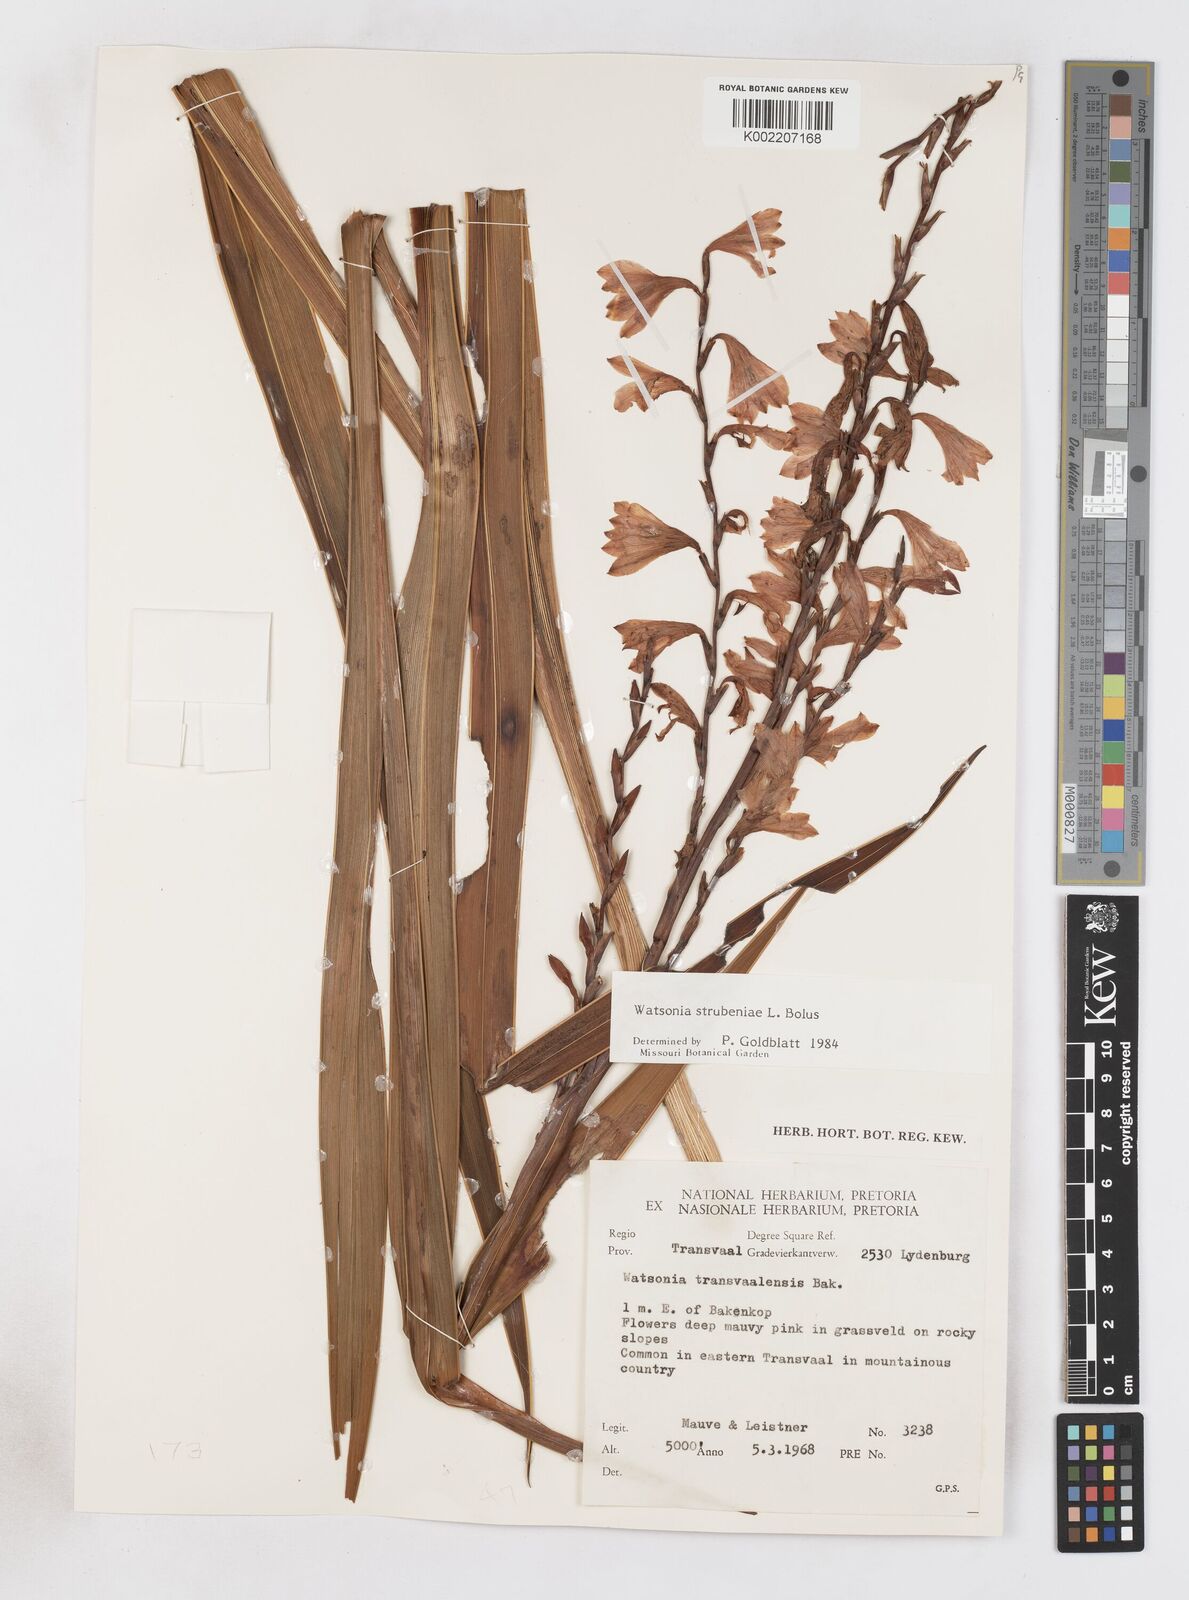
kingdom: Plantae
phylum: Tracheophyta
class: Liliopsida
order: Asparagales
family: Iridaceae
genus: Watsonia
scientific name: Watsonia strubeniae
